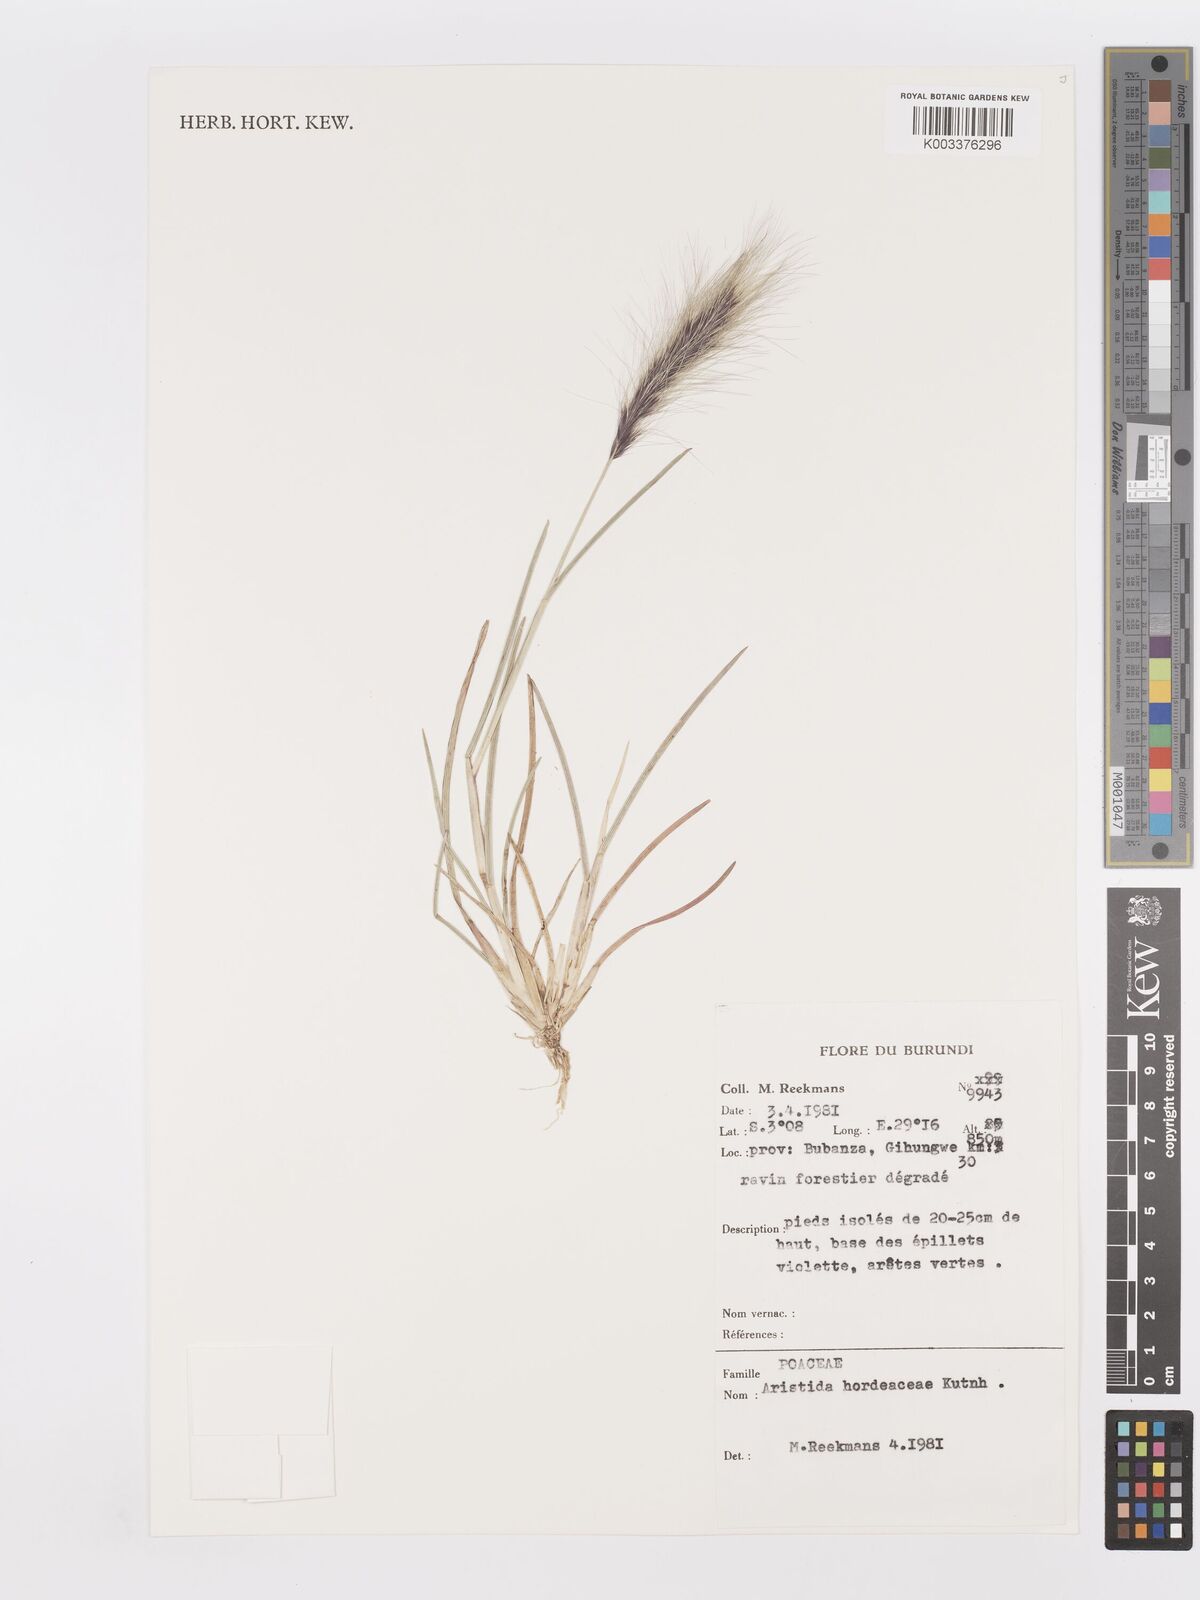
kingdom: Plantae
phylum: Tracheophyta
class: Liliopsida
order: Poales
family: Poaceae
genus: Aristida
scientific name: Aristida hordeacea
